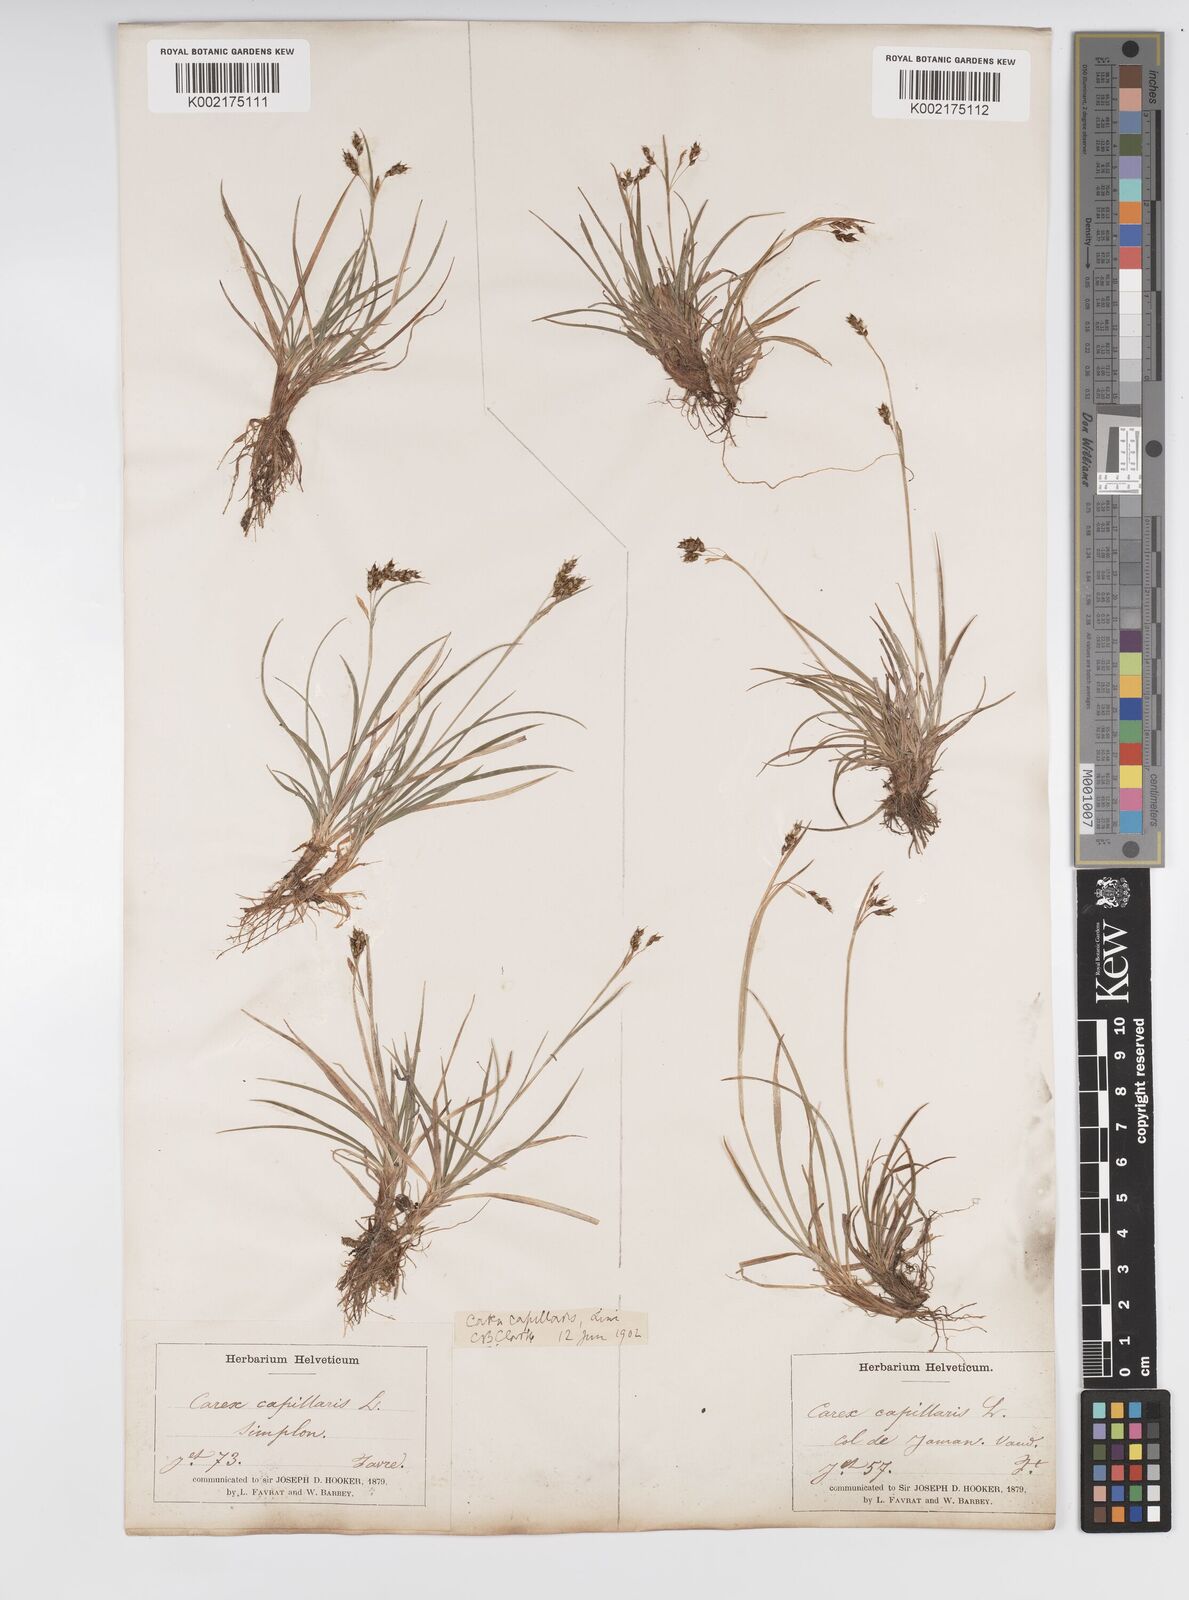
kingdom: Plantae
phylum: Tracheophyta
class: Liliopsida
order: Poales
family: Cyperaceae
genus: Carex
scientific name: Carex capillaris
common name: Hair sedge
